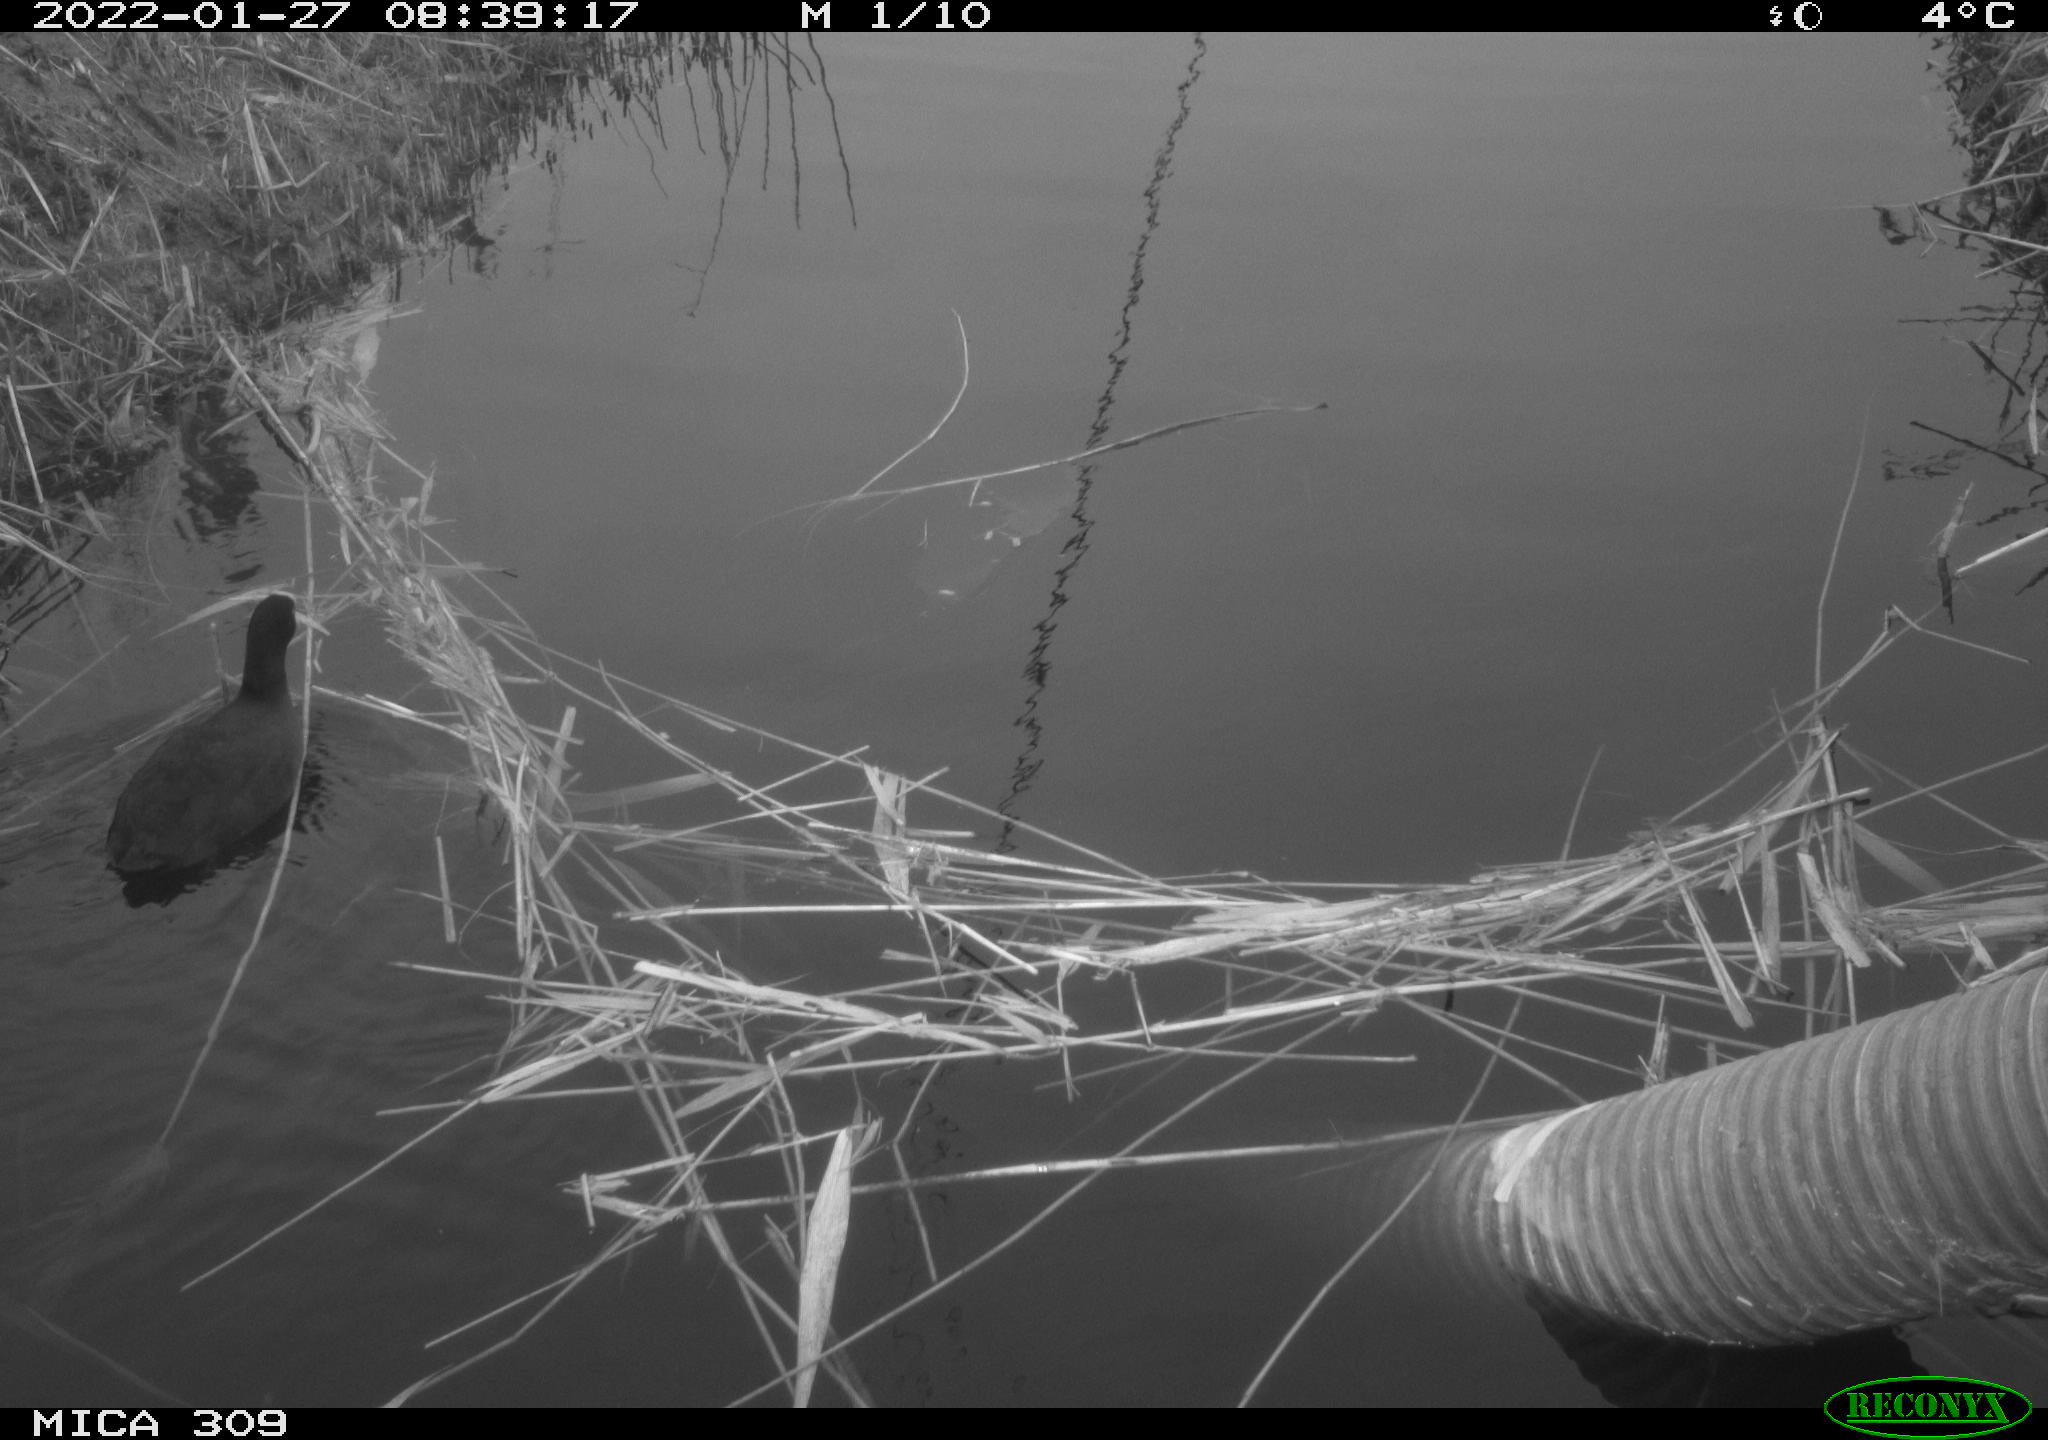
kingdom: Animalia
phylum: Chordata
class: Aves
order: Gruiformes
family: Rallidae
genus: Gallinula
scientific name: Gallinula chloropus
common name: Common moorhen
